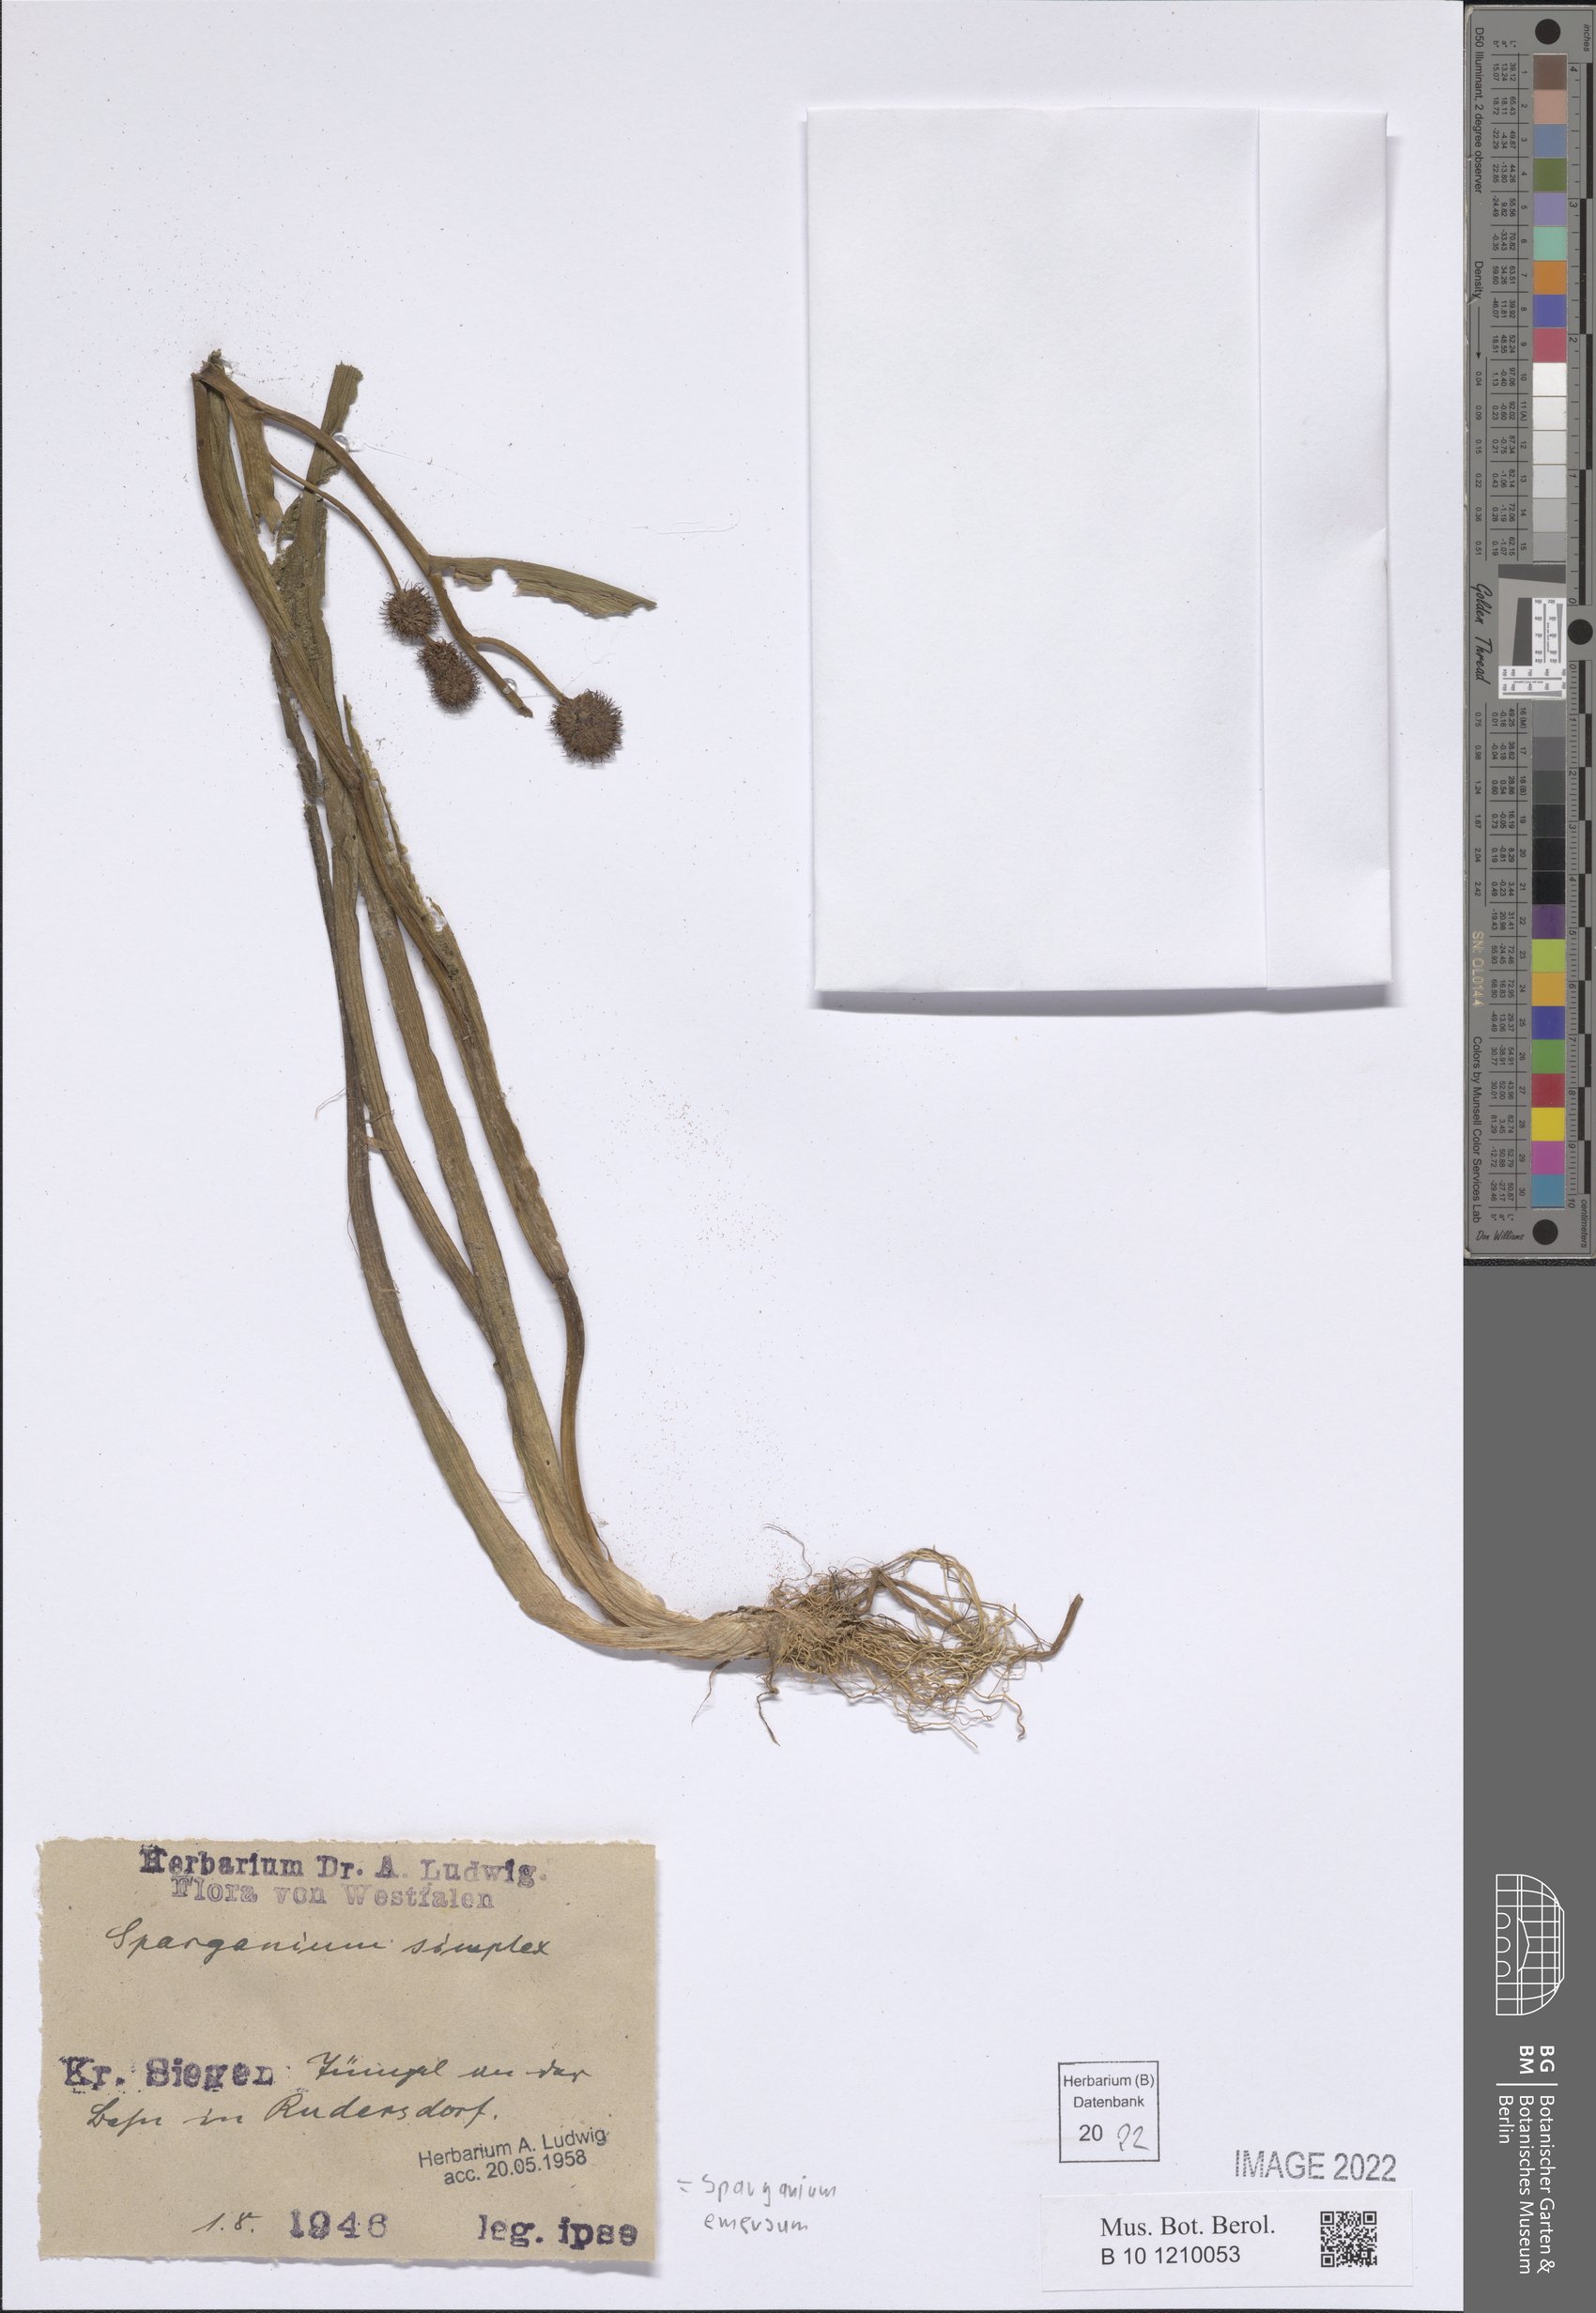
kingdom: Plantae
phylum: Tracheophyta
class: Liliopsida
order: Poales
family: Typhaceae
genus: Sparganium
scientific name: Sparganium emersum
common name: Unbranched bur-reed
